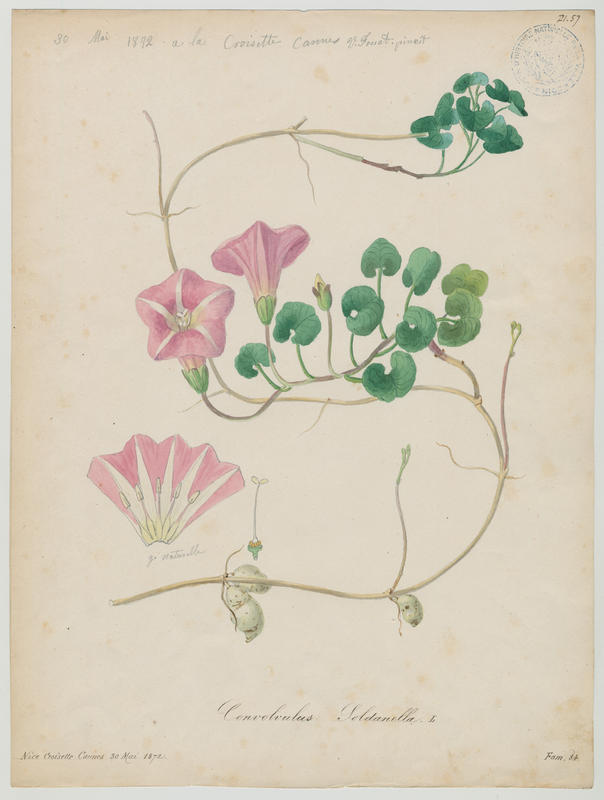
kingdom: Plantae
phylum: Tracheophyta
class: Magnoliopsida
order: Solanales
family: Convolvulaceae
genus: Calystegia
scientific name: Calystegia soldanella
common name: Sea bindweed
